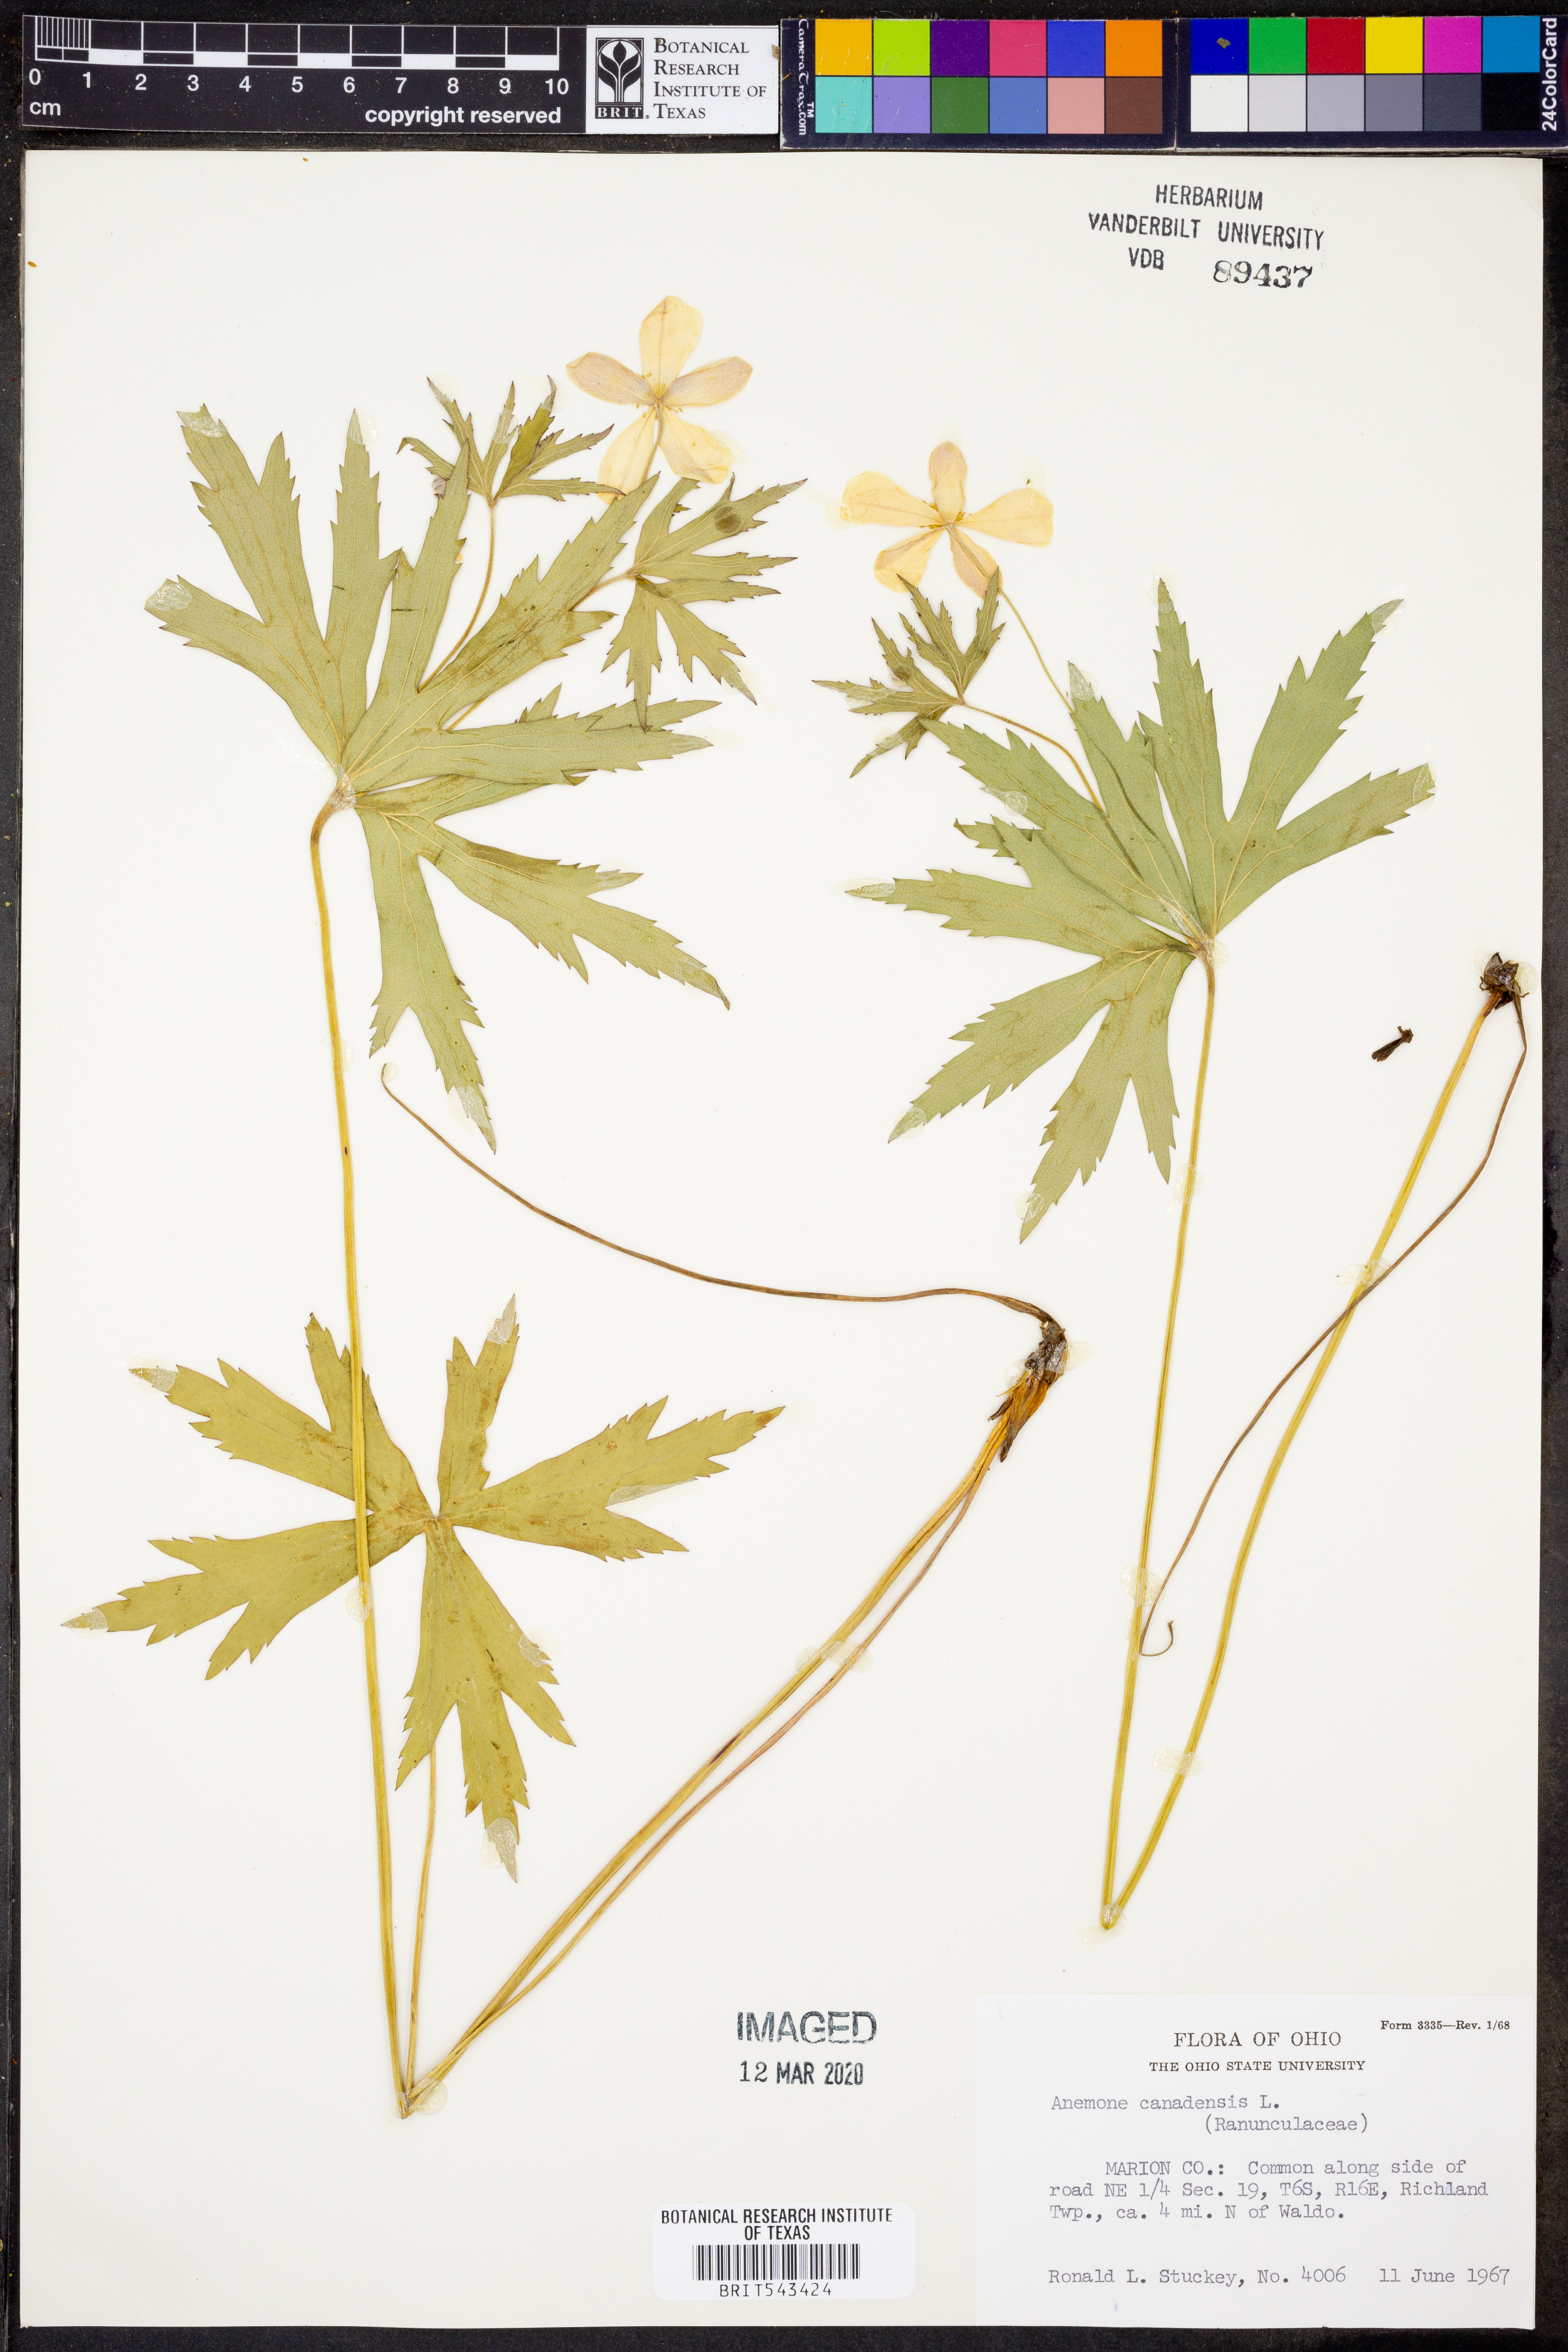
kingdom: Plantae
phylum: Tracheophyta
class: Magnoliopsida
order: Ranunculales
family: Ranunculaceae
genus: Anemonastrum
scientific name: Anemonastrum canadense
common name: Canada anemone
